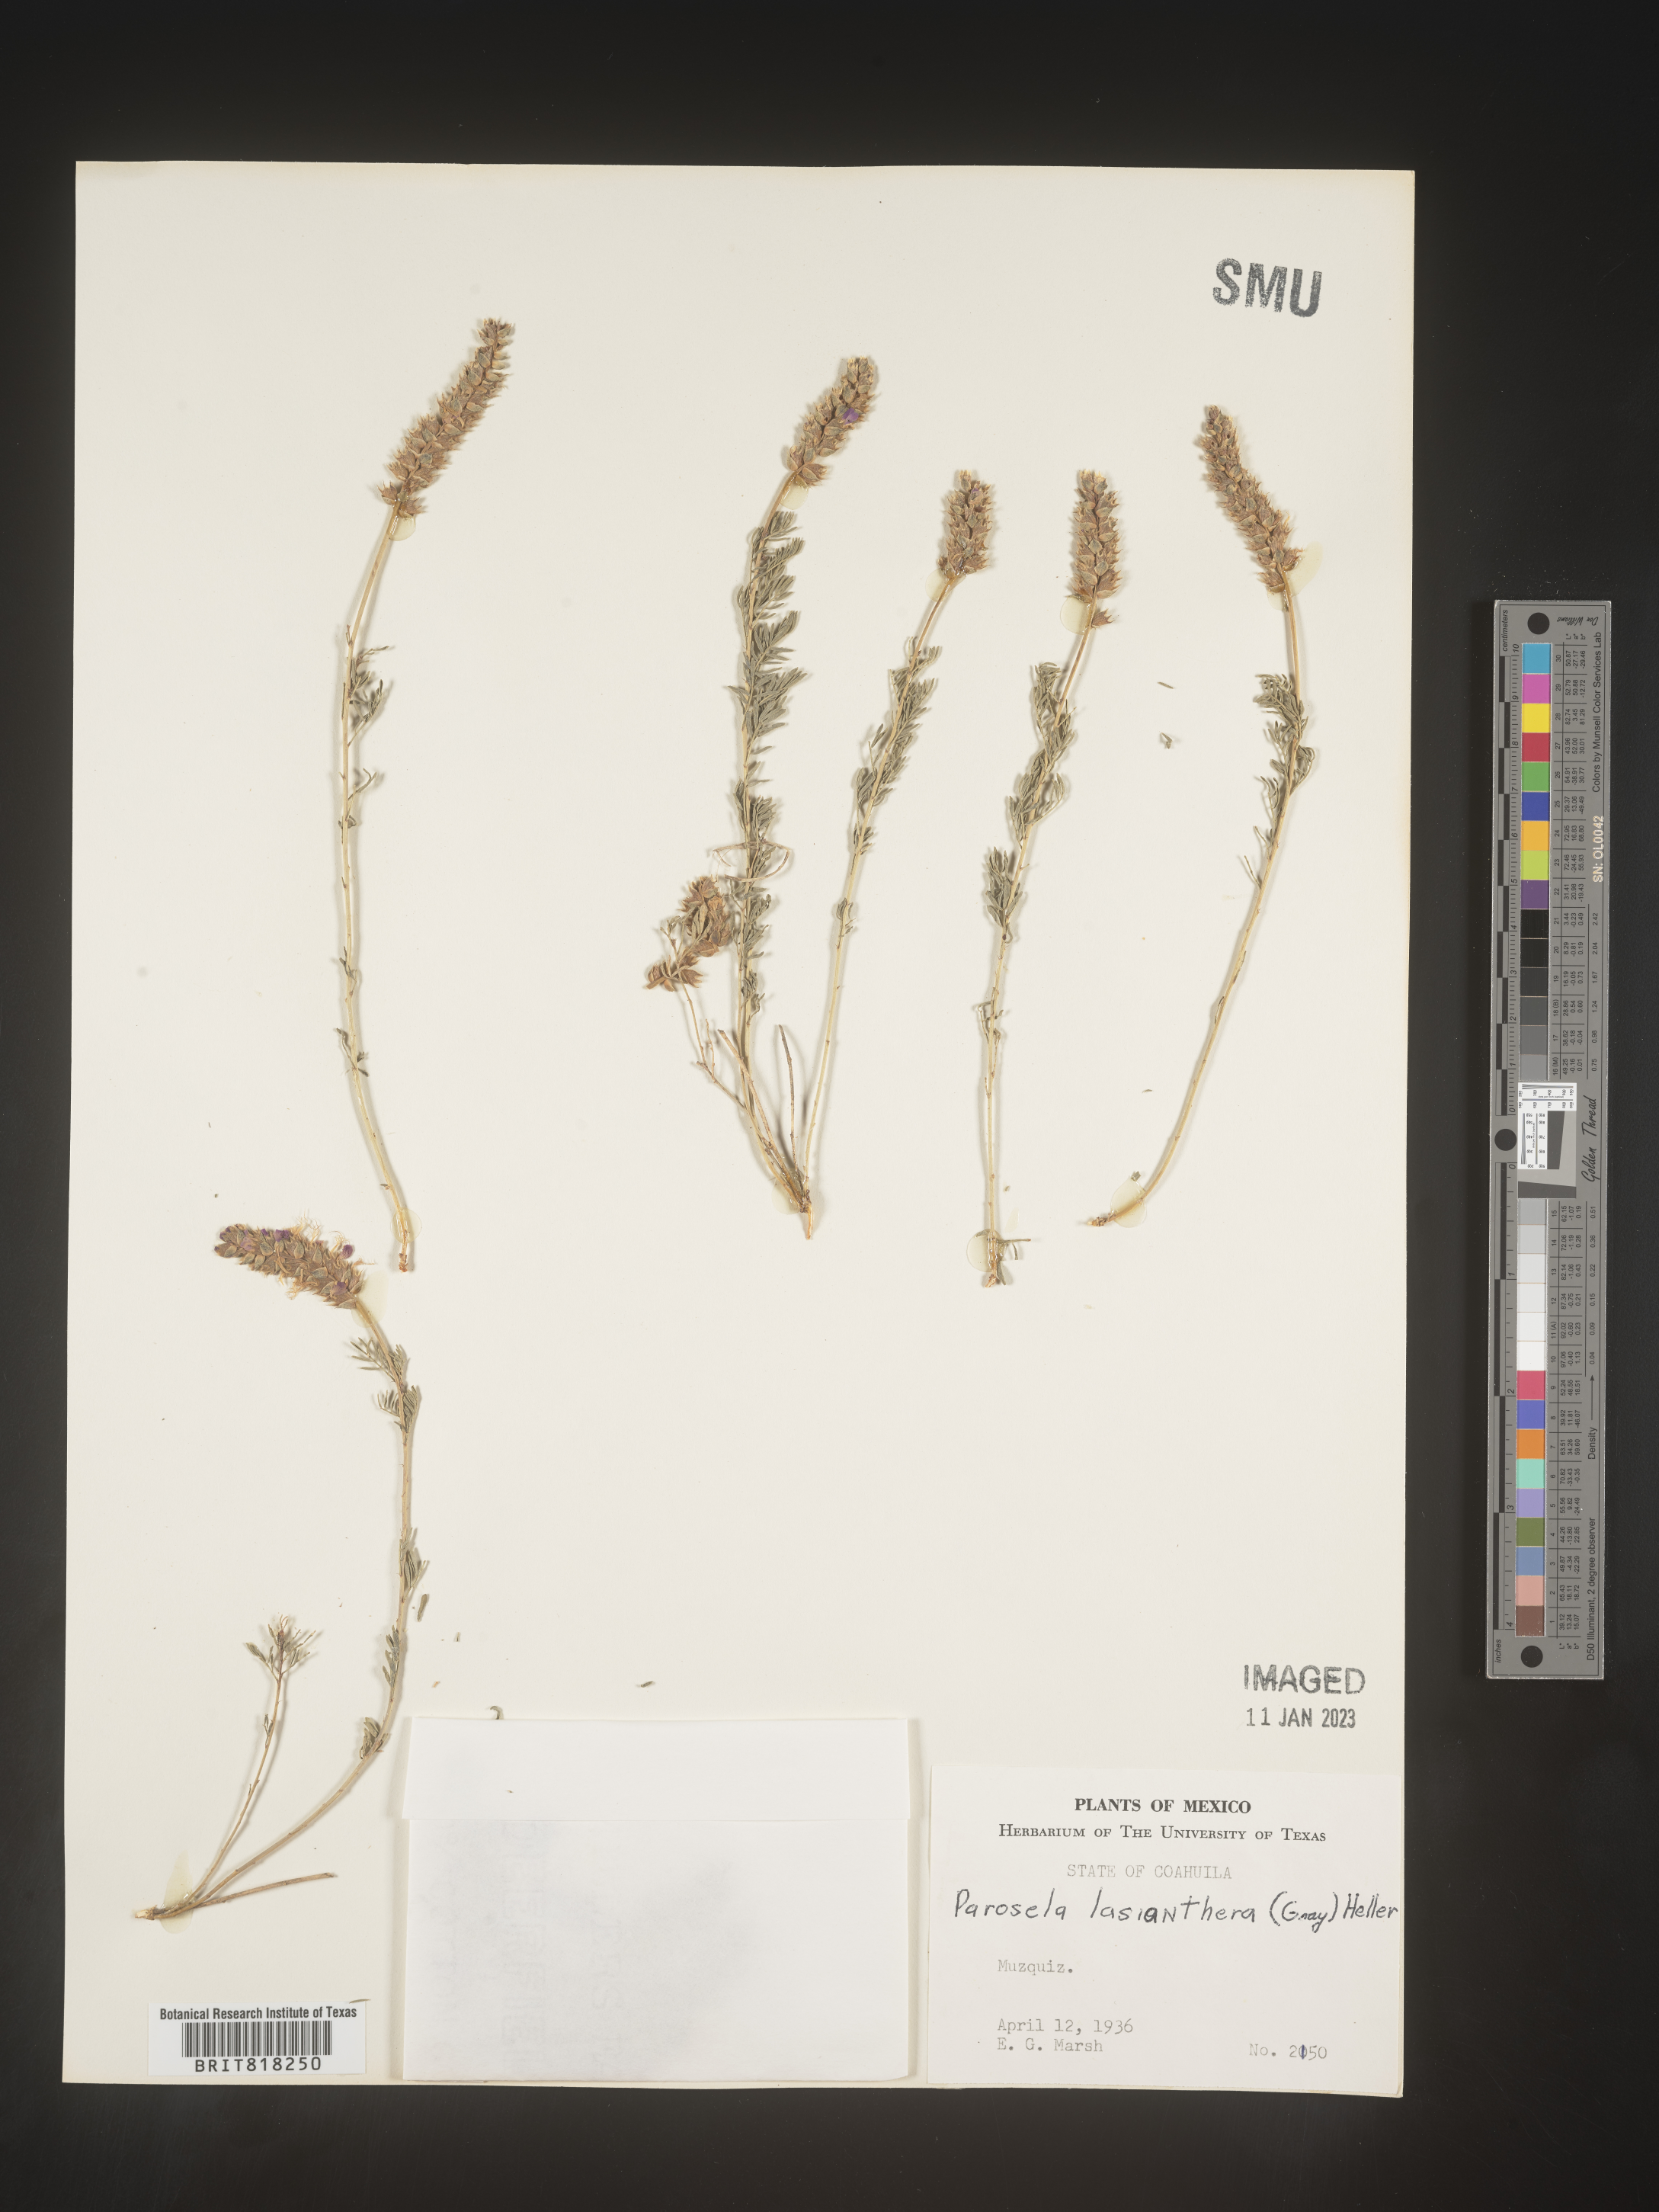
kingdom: Plantae
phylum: Tracheophyta
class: Magnoliopsida
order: Fabales
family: Fabaceae
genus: Dalea
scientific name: Dalea
